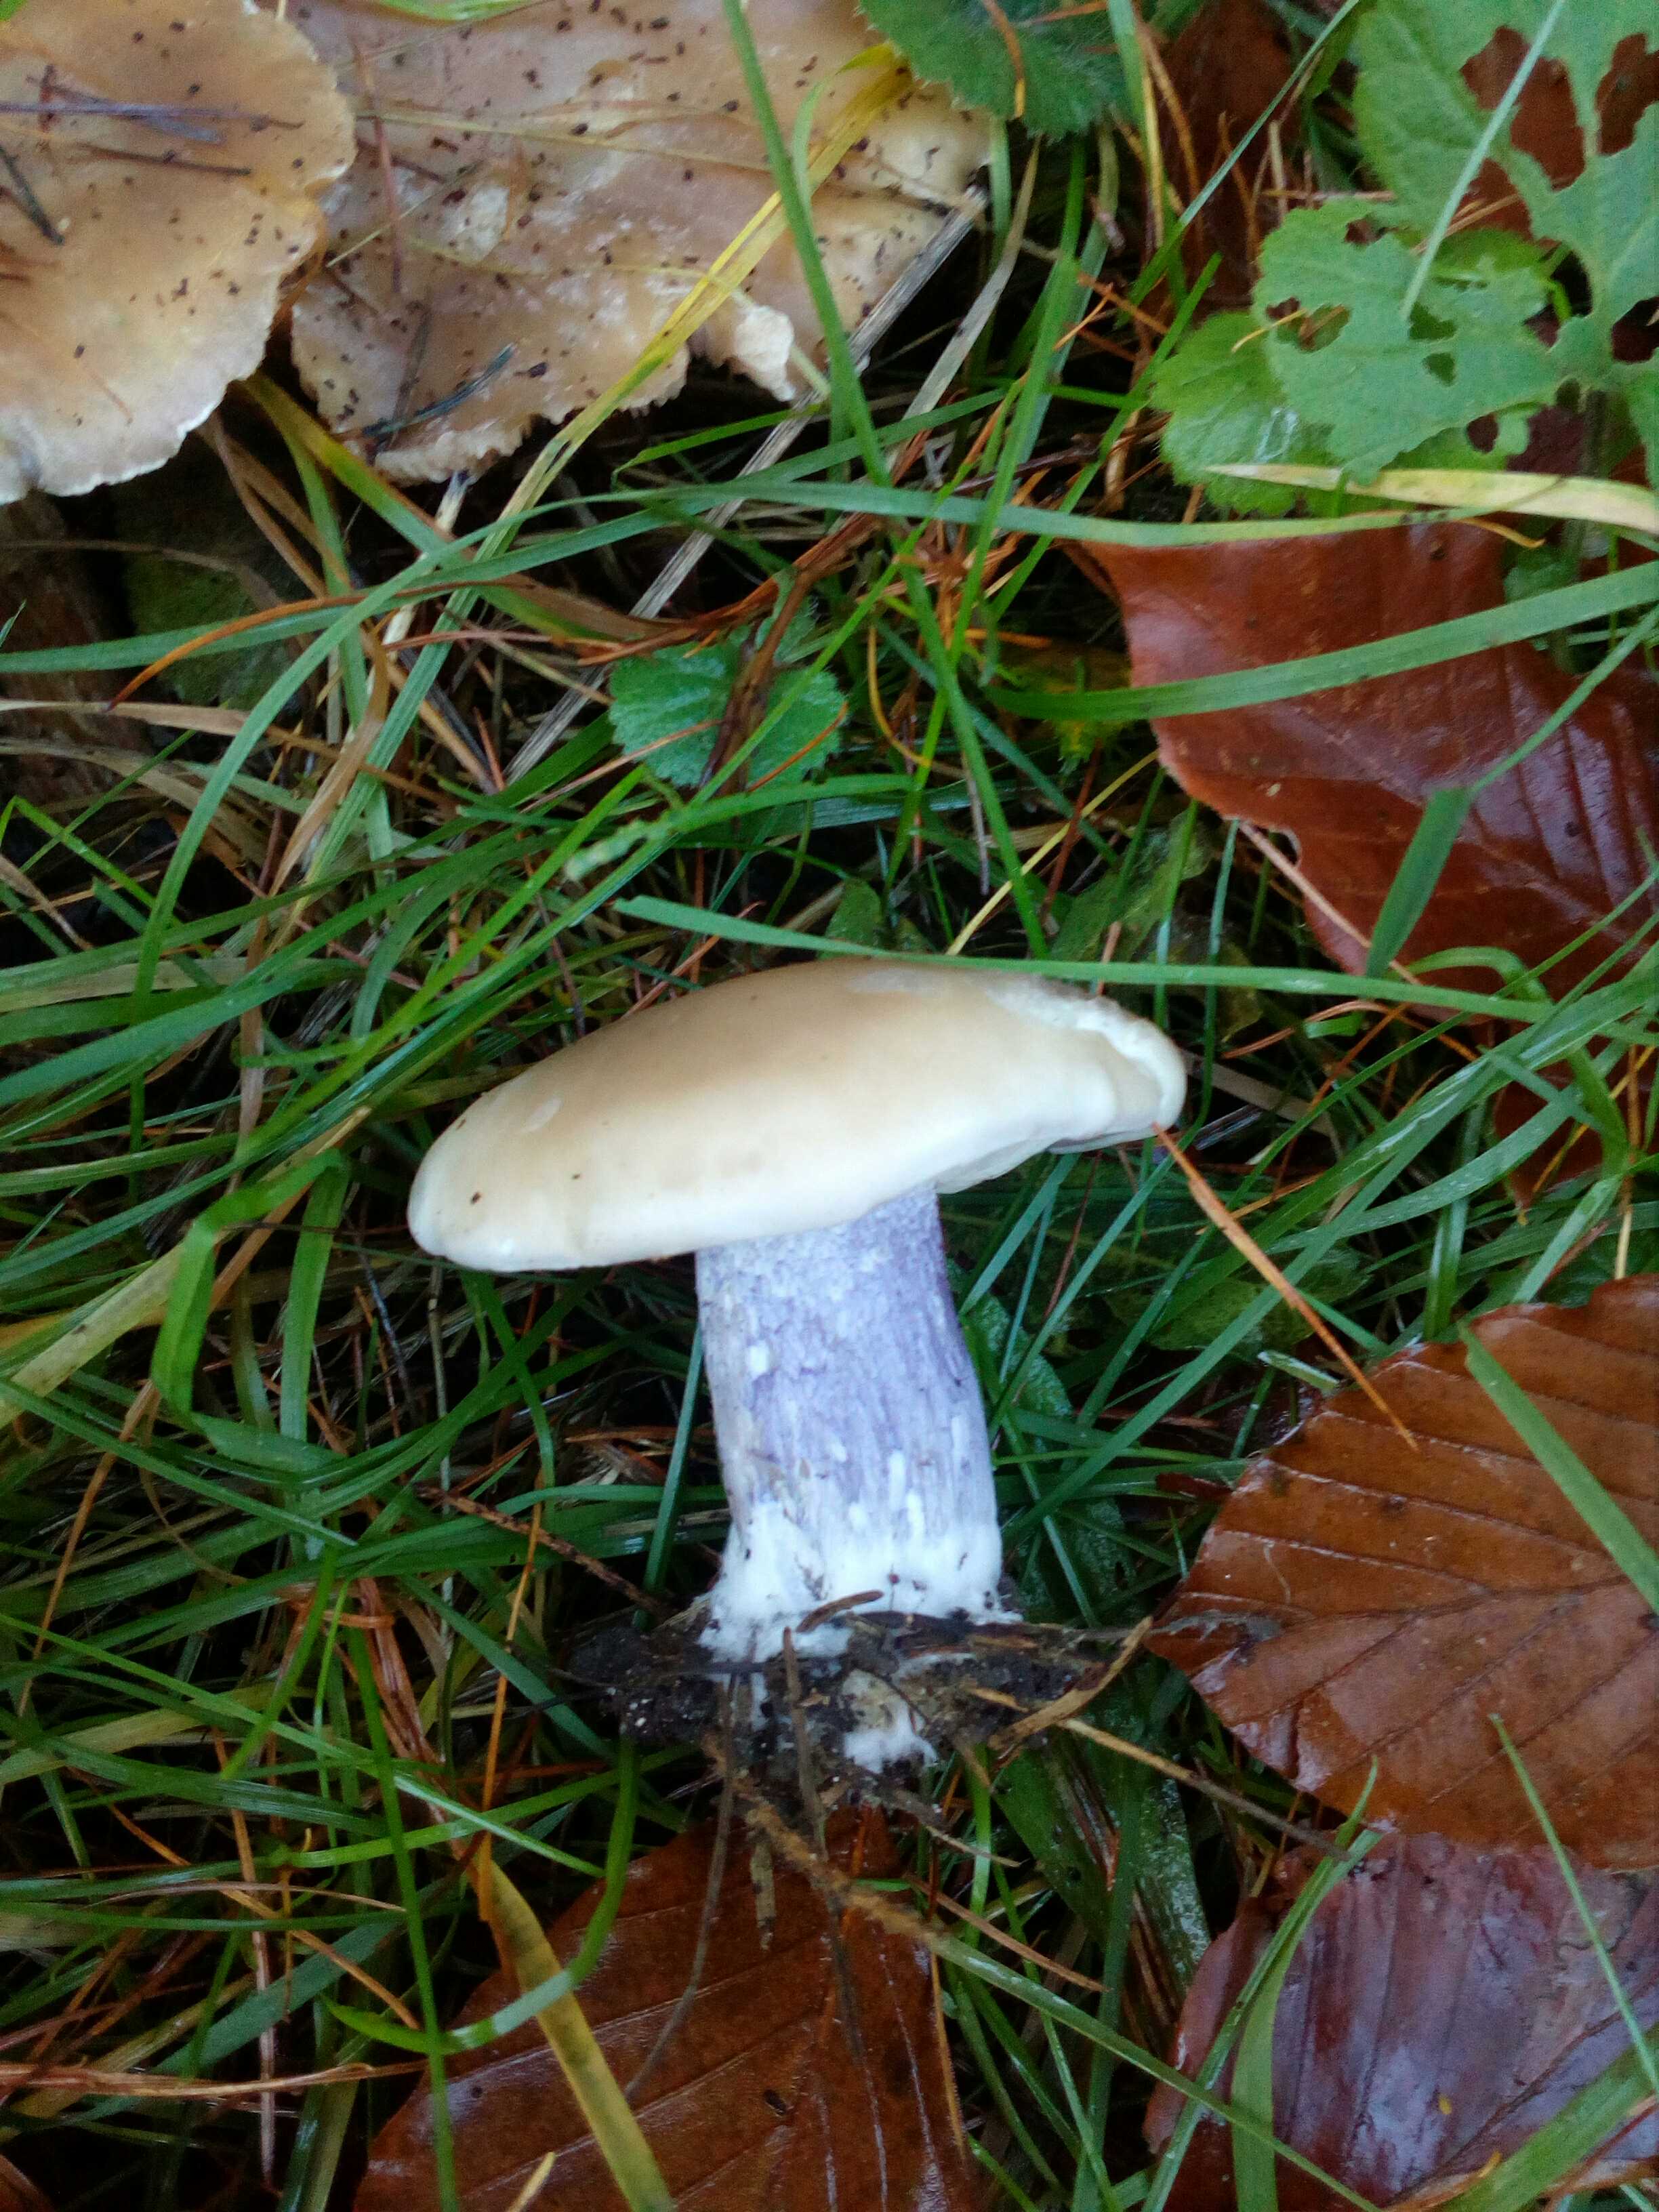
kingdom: Fungi
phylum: Basidiomycota
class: Agaricomycetes
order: Agaricales
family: Tricholomataceae
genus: Lepista
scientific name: Lepista personata
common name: bleg hekseringshat
